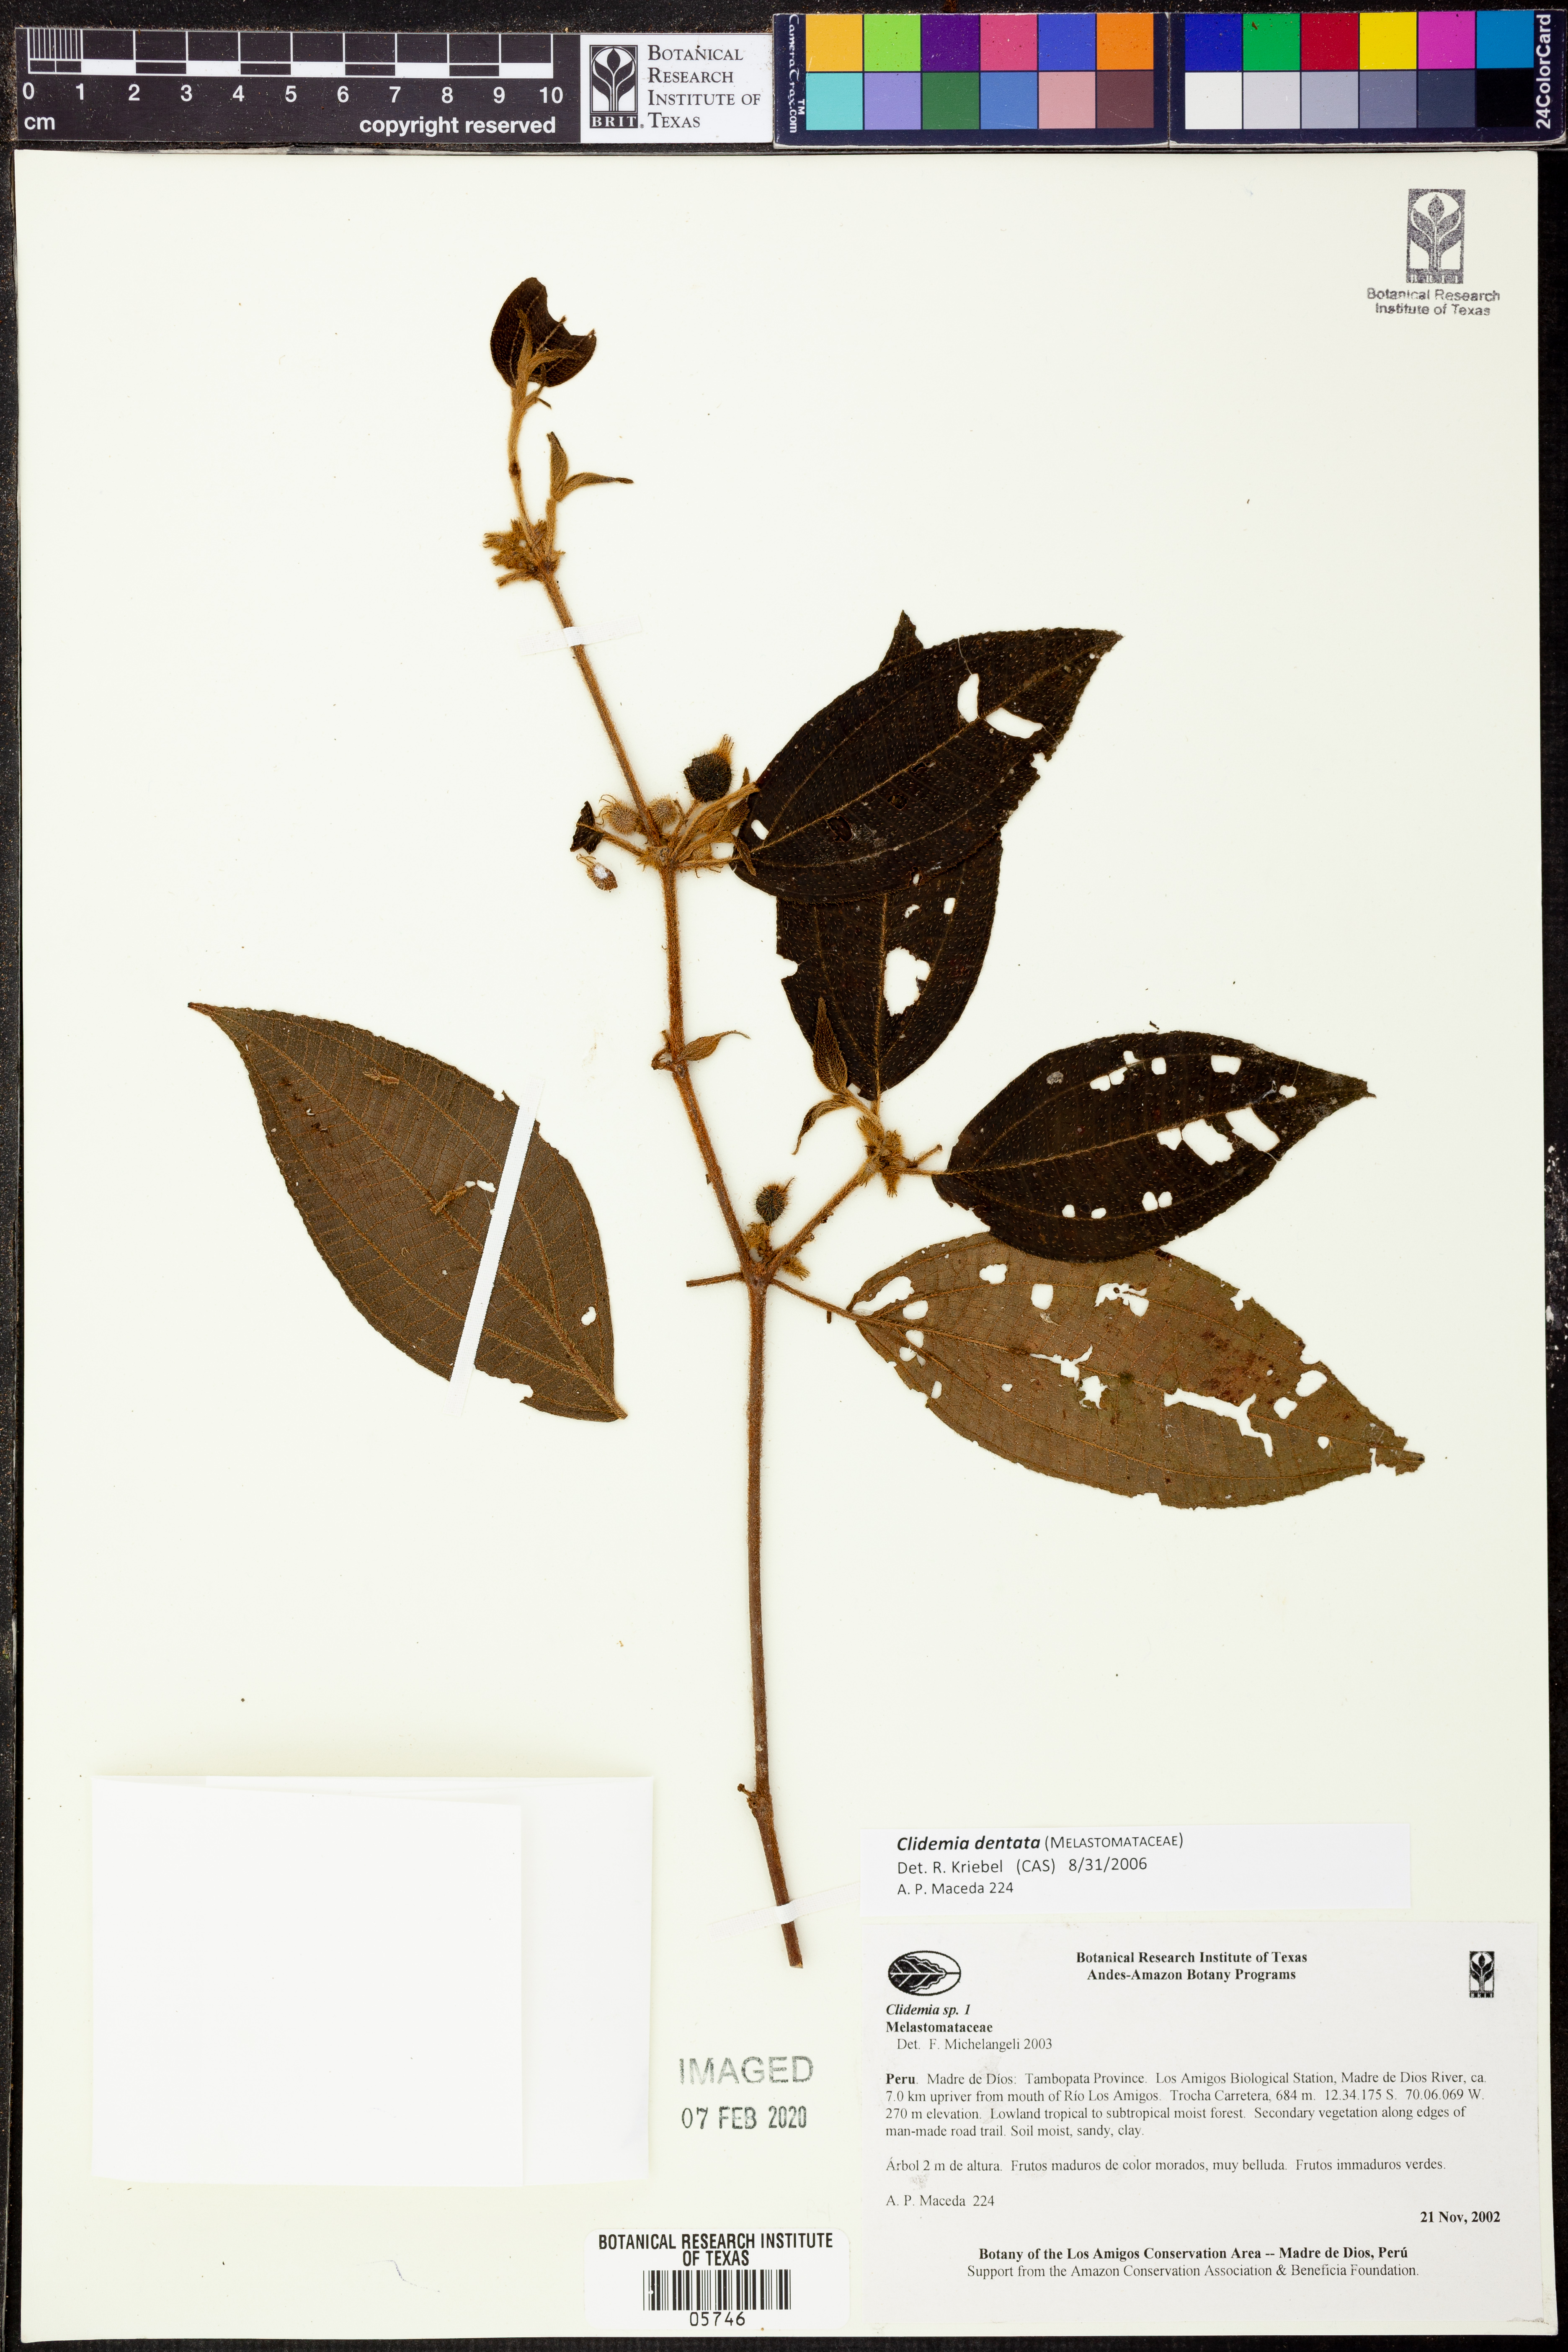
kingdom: Plantae
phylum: Tracheophyta
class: Magnoliopsida
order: Myrtales
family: Melastomataceae
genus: Miconia
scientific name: Miconia dentata
